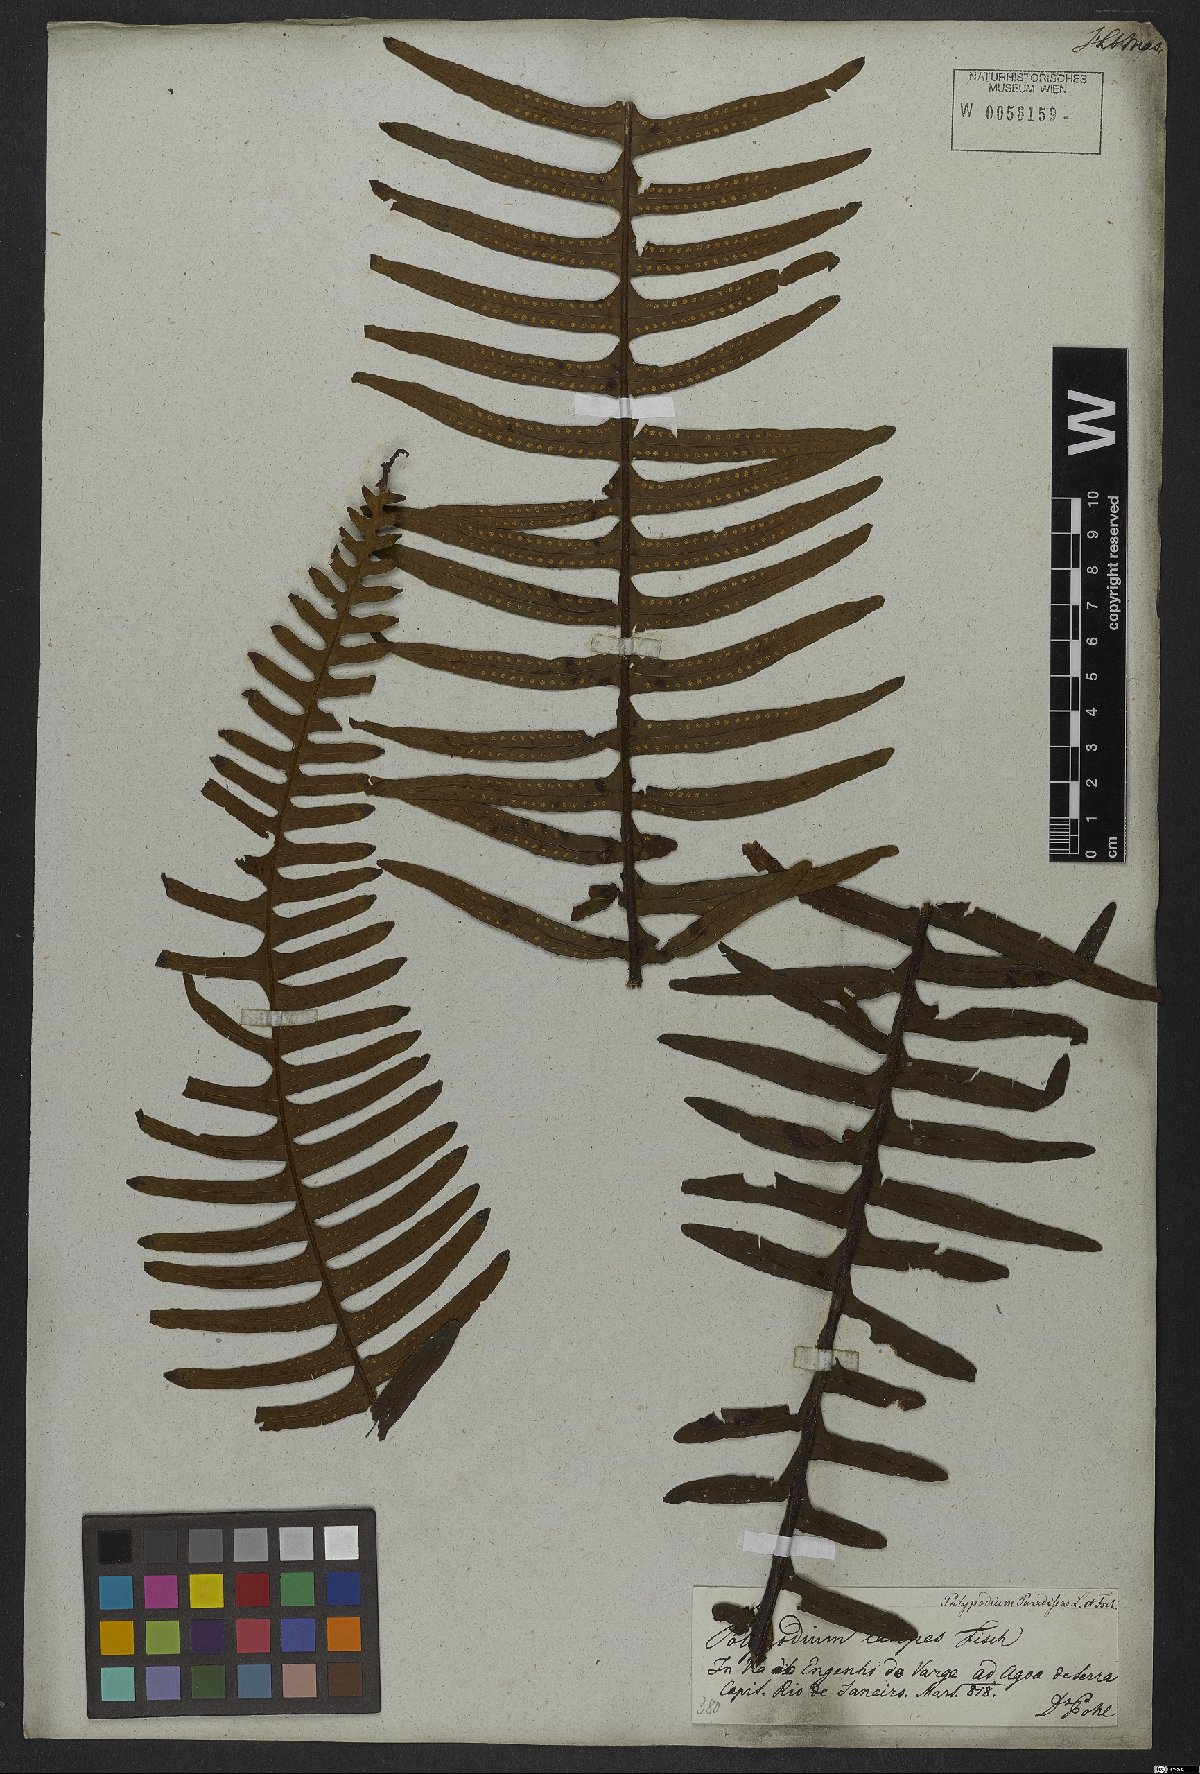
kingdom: Plantae
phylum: Tracheophyta
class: Polypodiopsida
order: Polypodiales
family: Polypodiaceae
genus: Pecluma
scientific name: Pecluma paradiseae
